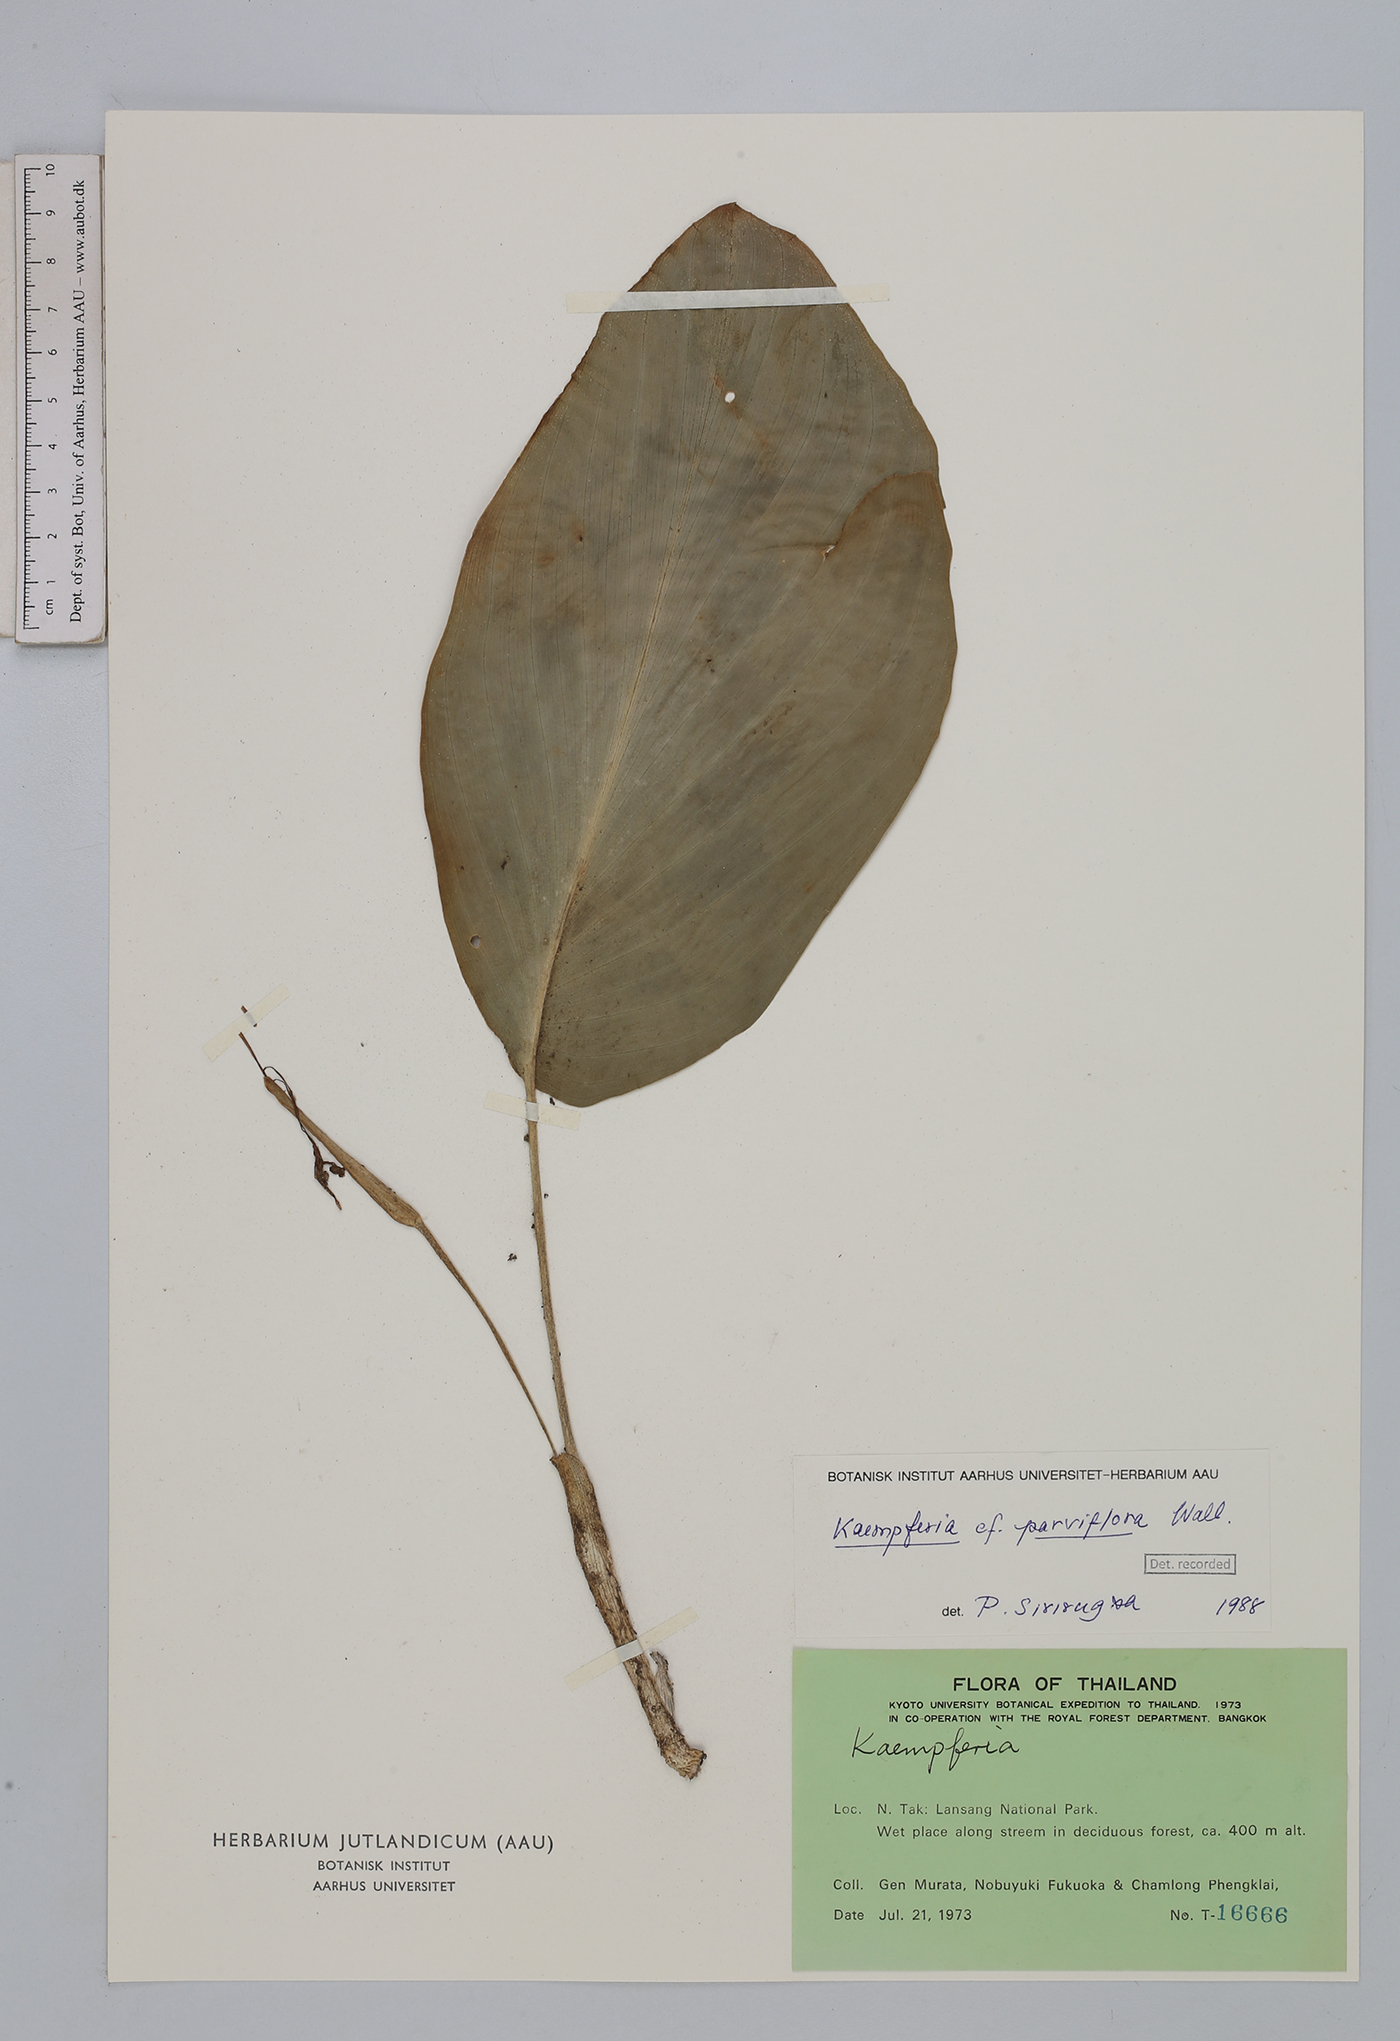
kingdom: Plantae
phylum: Tracheophyta
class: Liliopsida
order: Zingiberales
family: Zingiberaceae
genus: Kaempferia
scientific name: Kaempferia parviflora
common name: Black galingale
